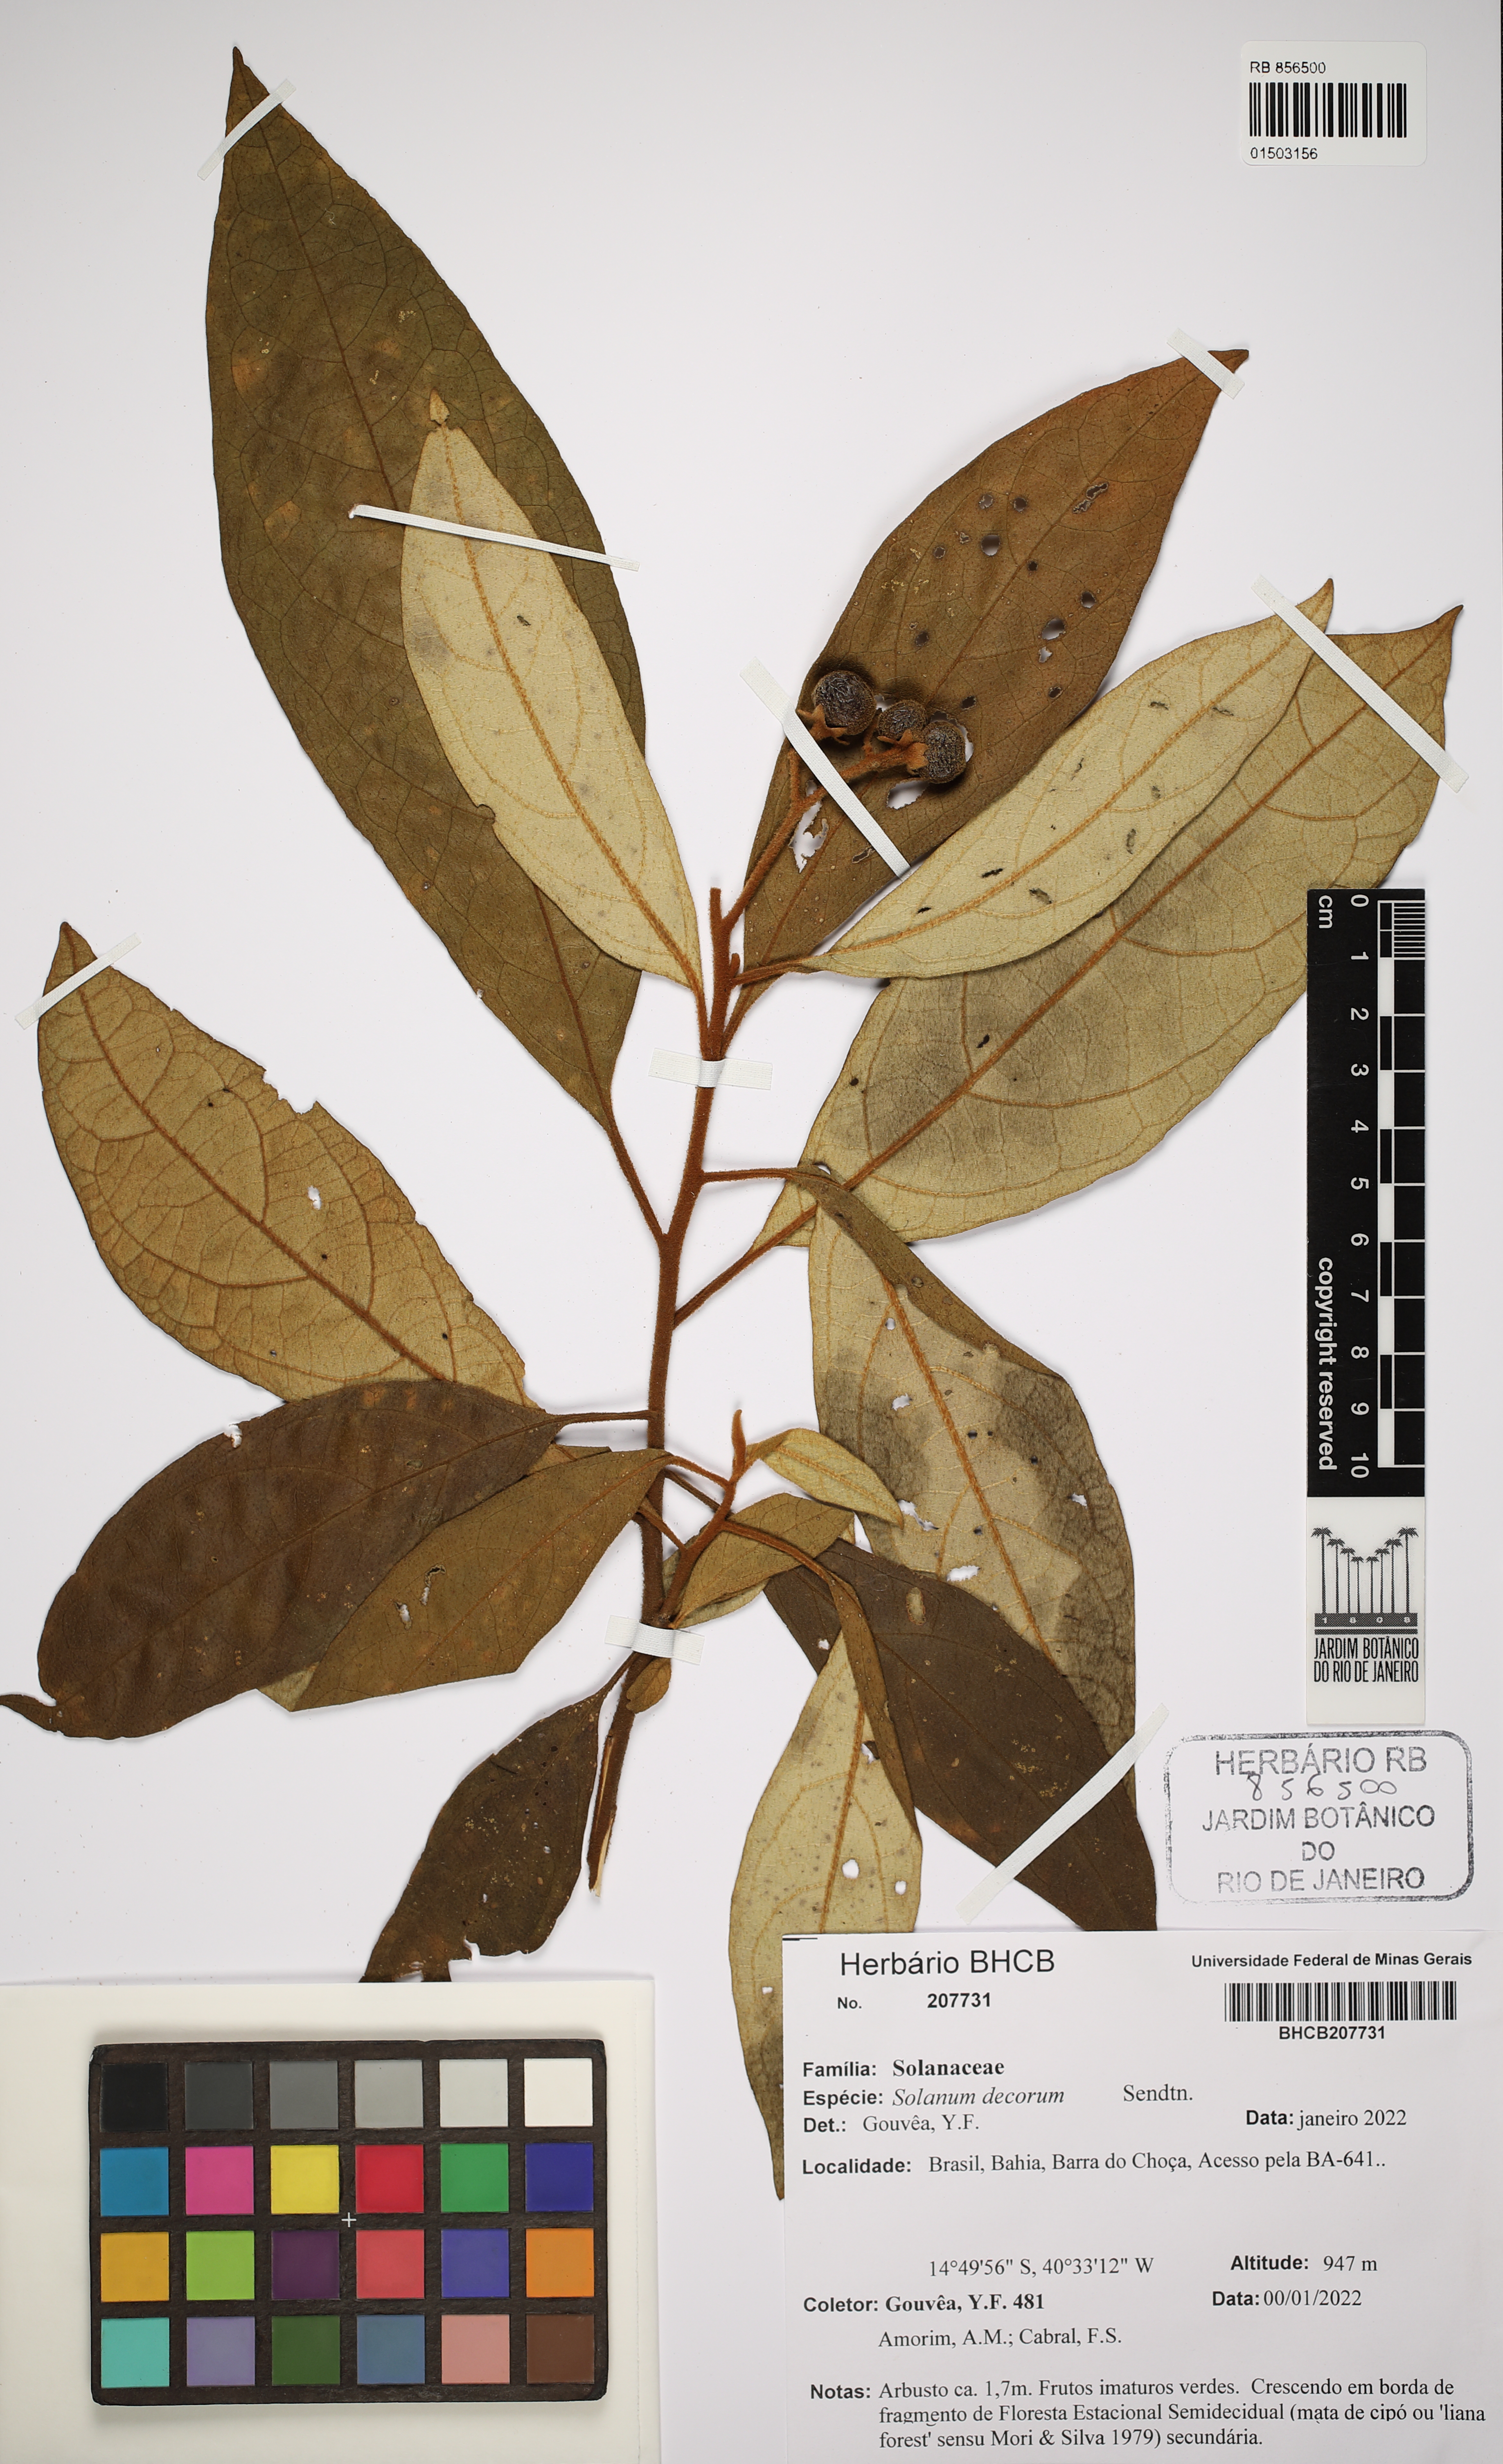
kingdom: Plantae
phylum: Tracheophyta
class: Magnoliopsida
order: Solanales
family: Solanaceae
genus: Solanum
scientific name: Solanum decorum
